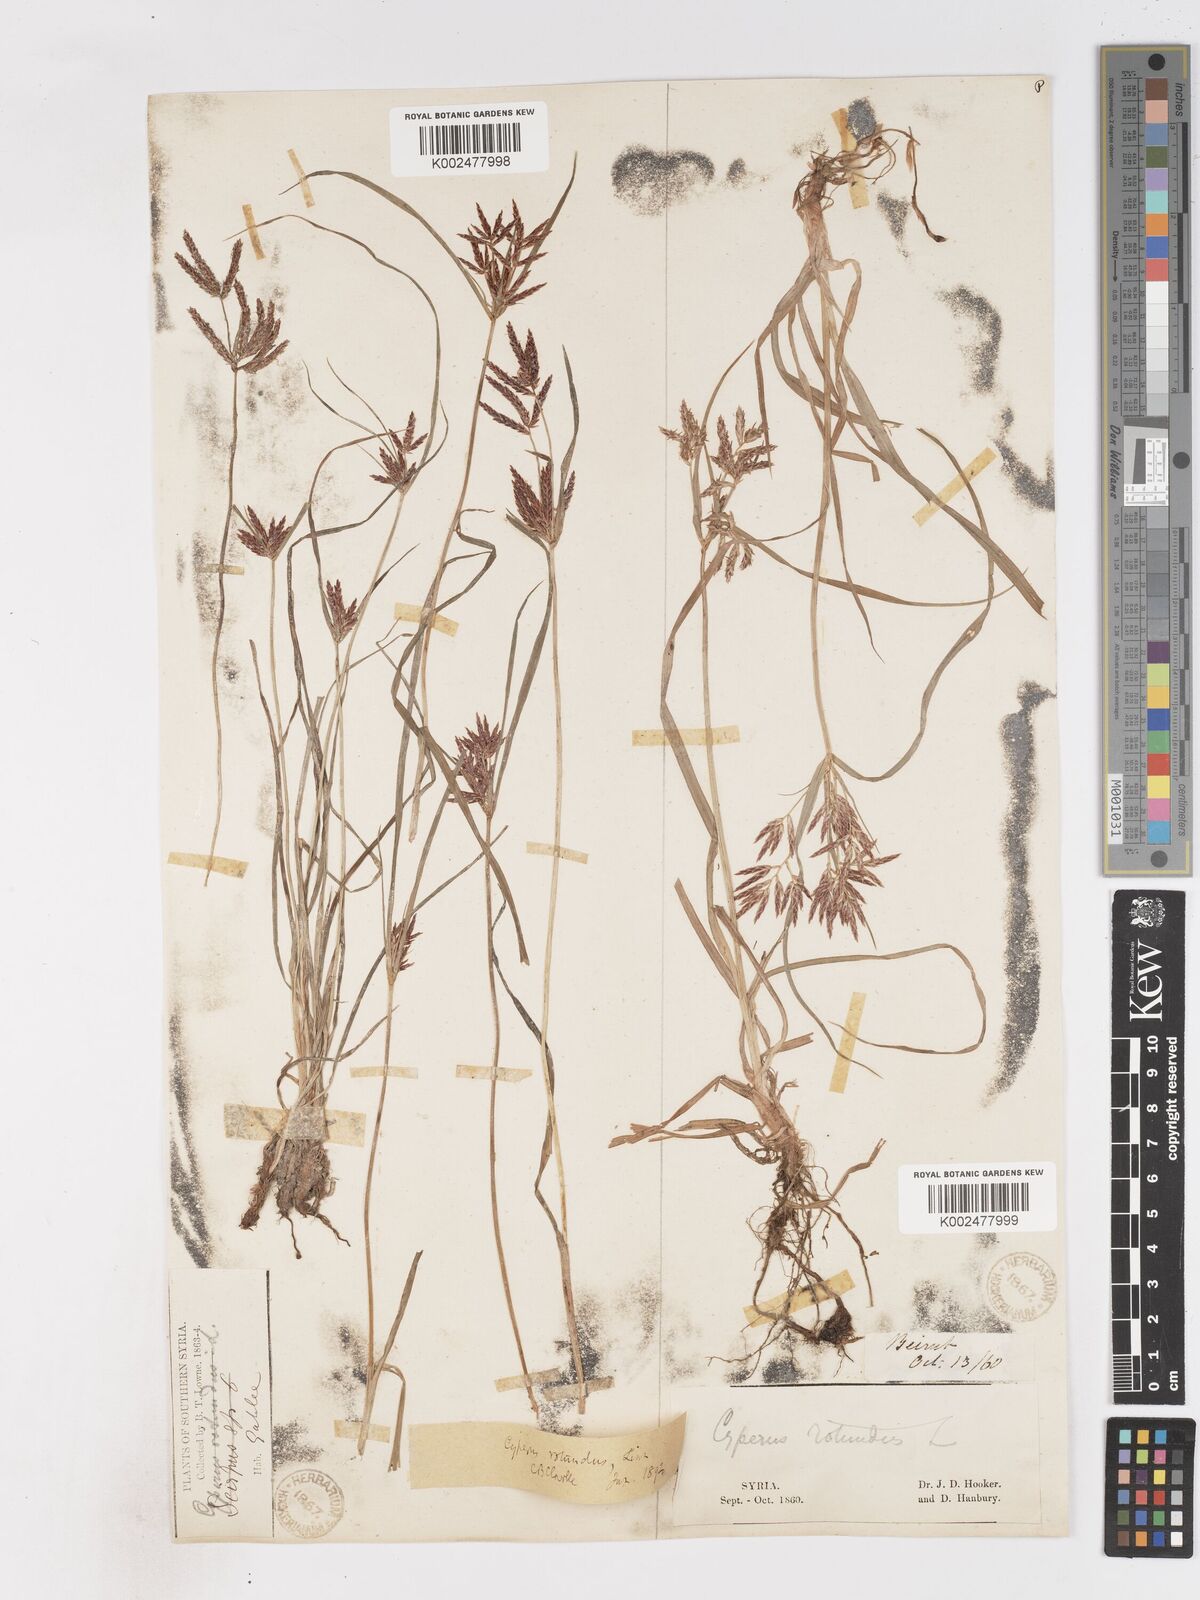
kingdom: Plantae
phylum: Tracheophyta
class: Liliopsida
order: Poales
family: Cyperaceae
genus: Cyperus
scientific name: Cyperus rotundus
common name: Nutgrass
